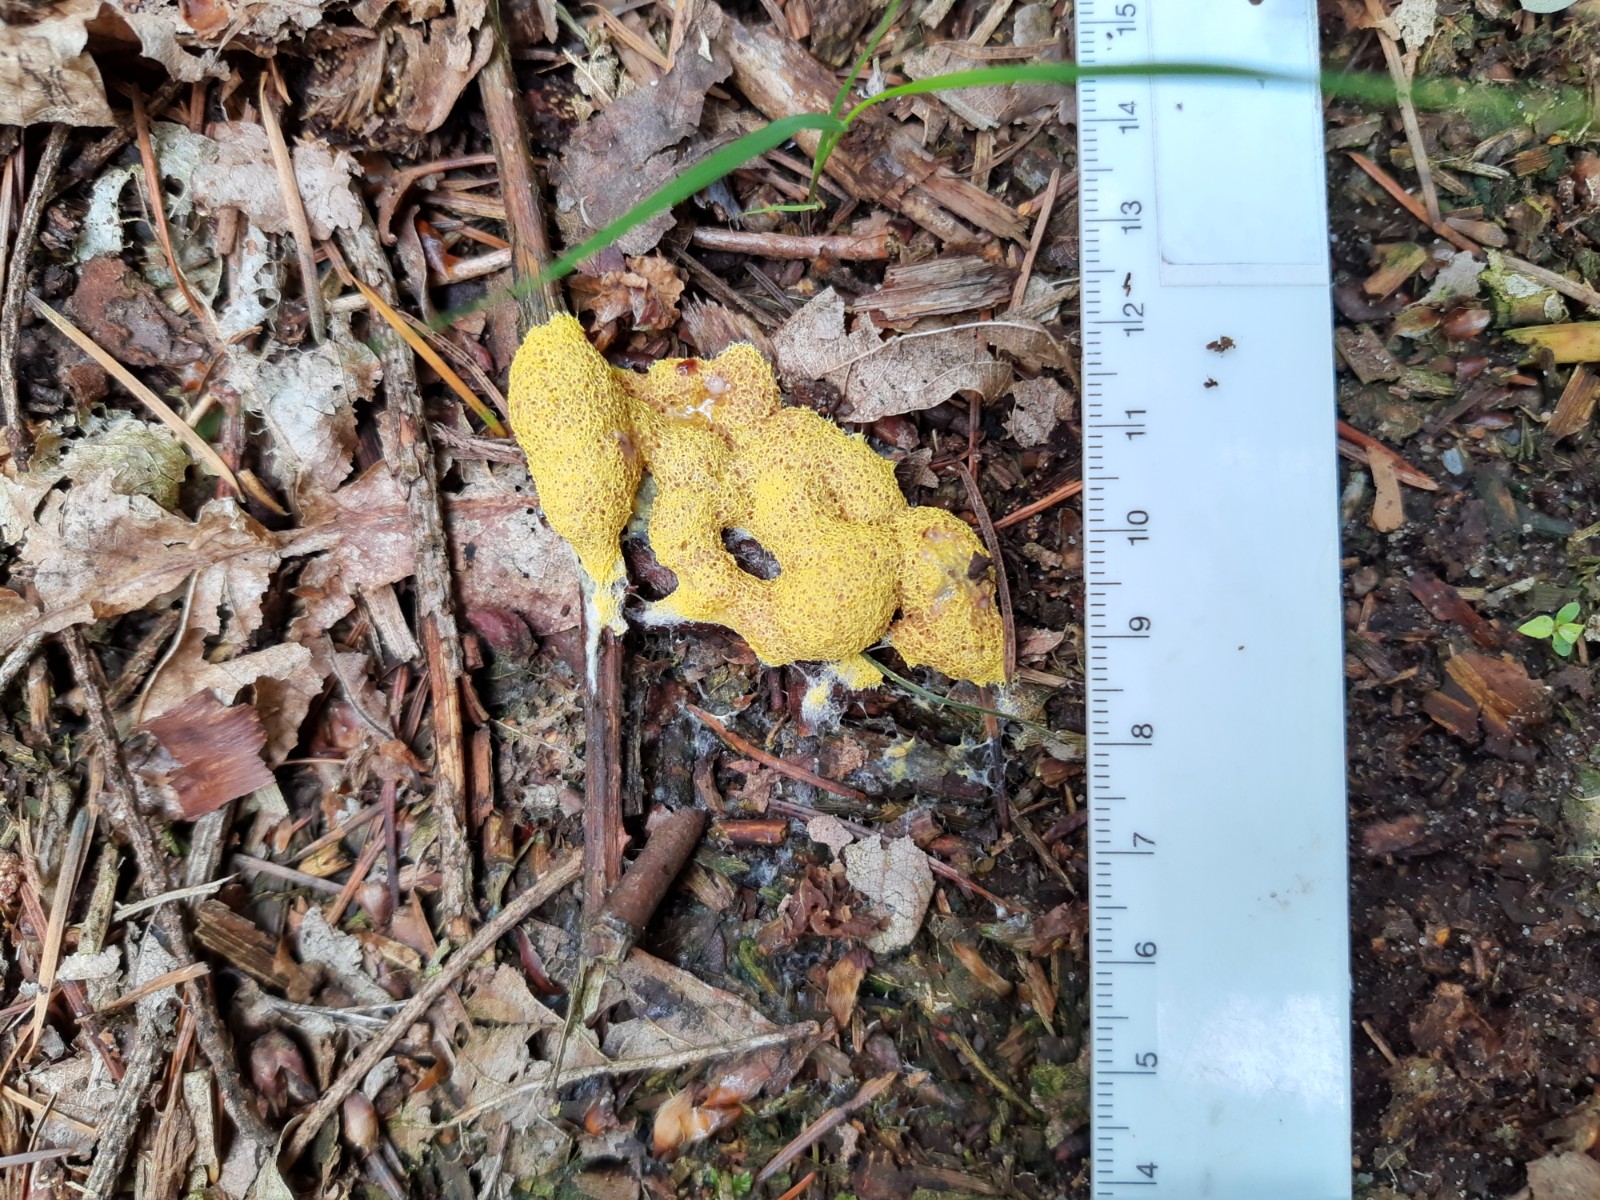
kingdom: Protozoa
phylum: Mycetozoa
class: Myxomycetes
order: Physarales
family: Physaraceae
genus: Fuligo
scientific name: Fuligo septica
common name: gul troldsmør
